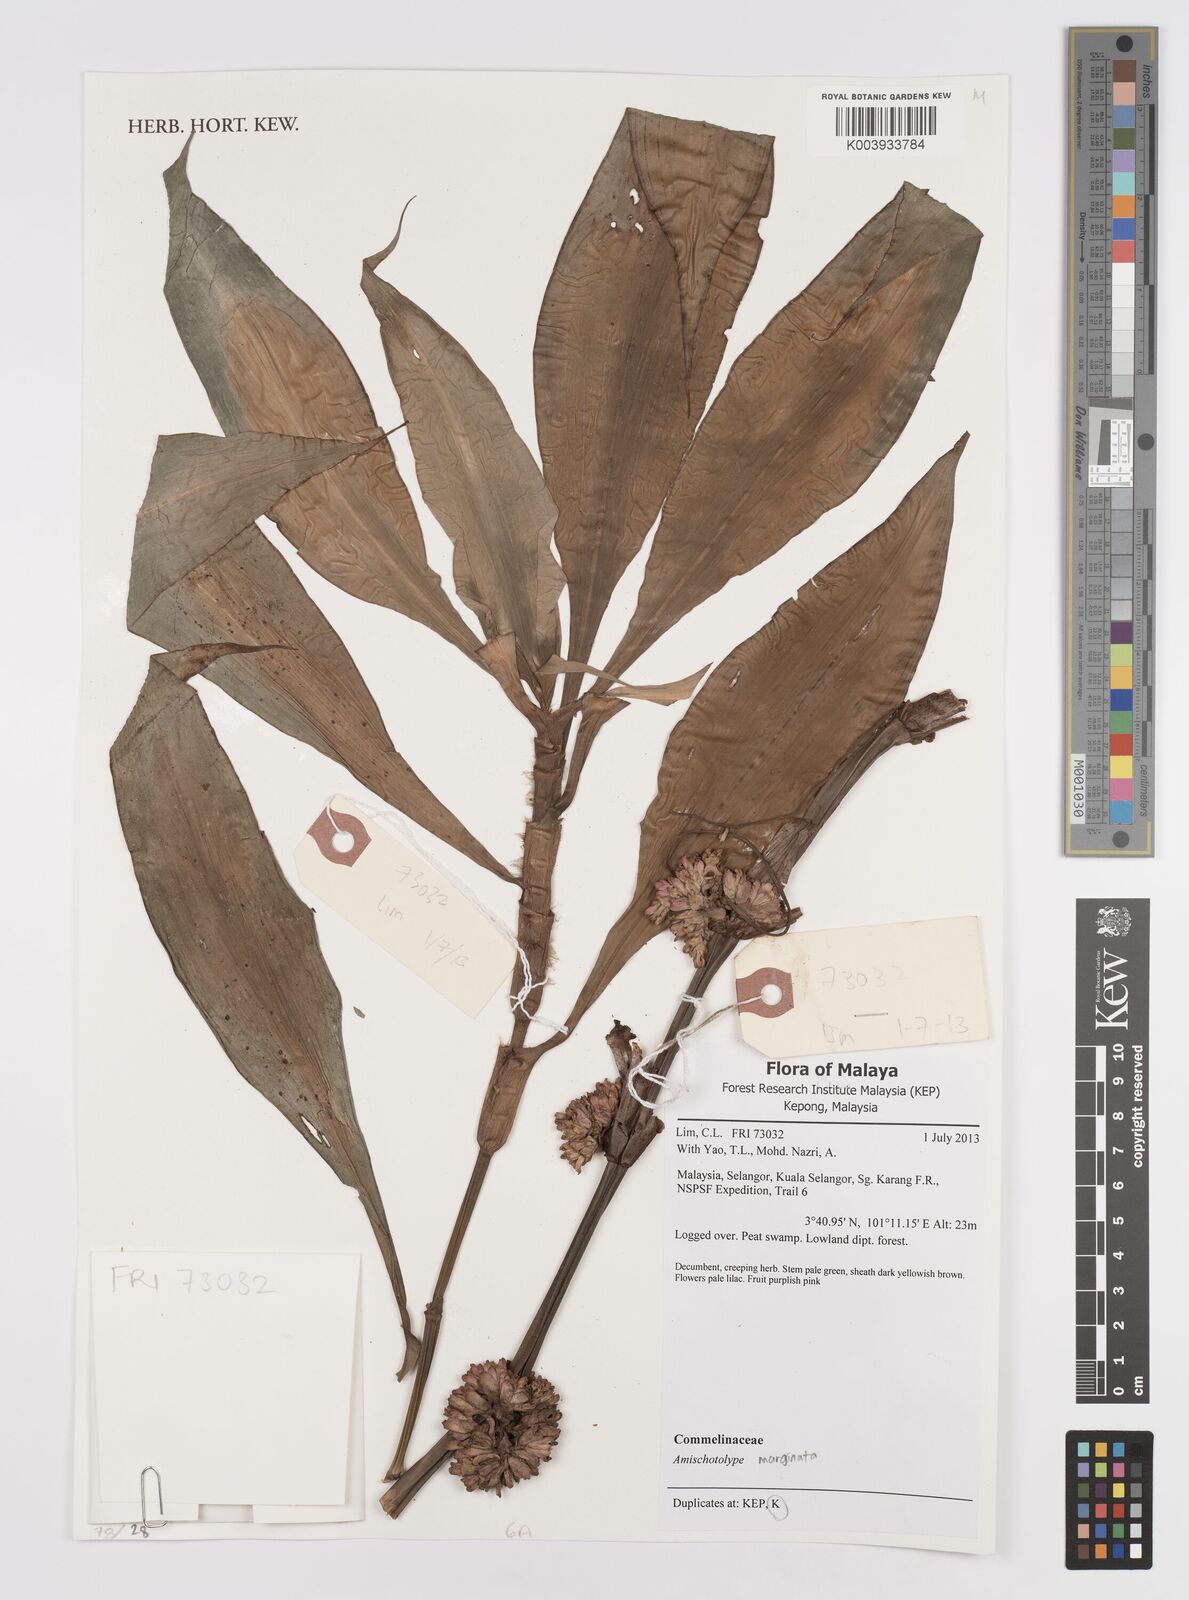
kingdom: Plantae
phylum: Tracheophyta
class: Liliopsida
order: Commelinales
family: Commelinaceae
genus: Amischotolype
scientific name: Amischotolype marginata
